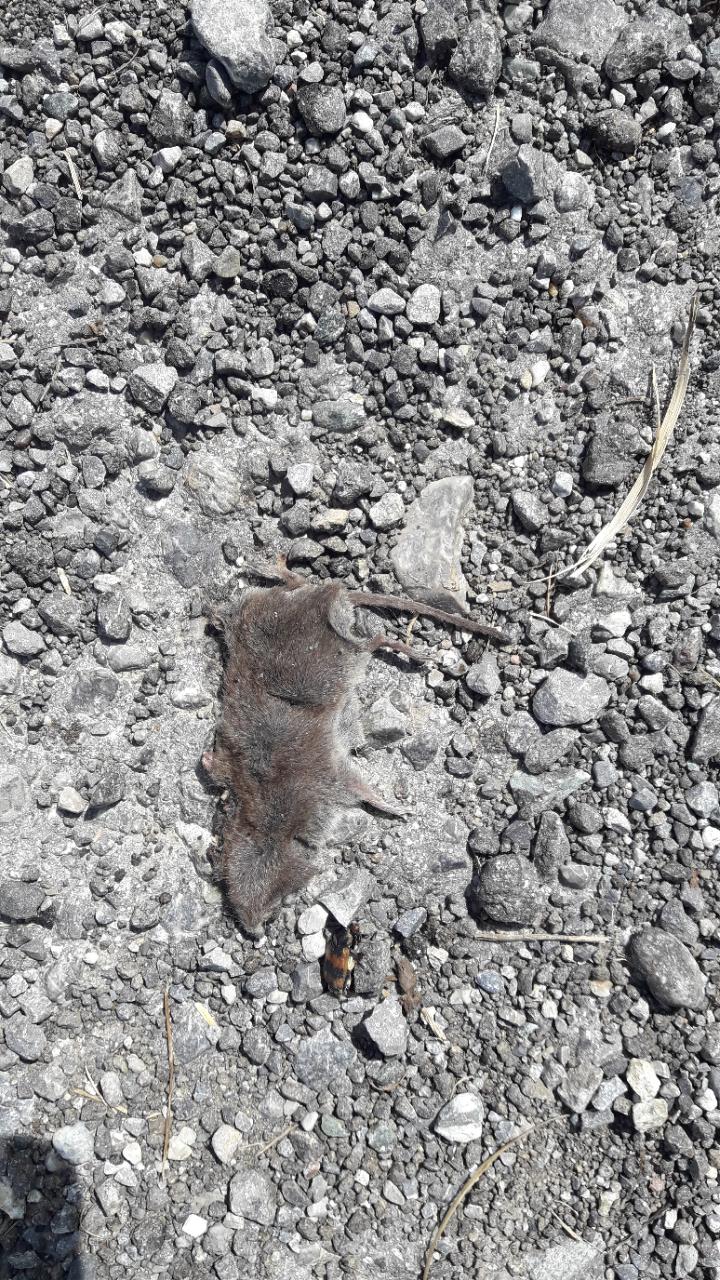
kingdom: Animalia
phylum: Chordata
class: Mammalia
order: Soricomorpha
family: Soricidae
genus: Crocidura
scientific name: Crocidura
